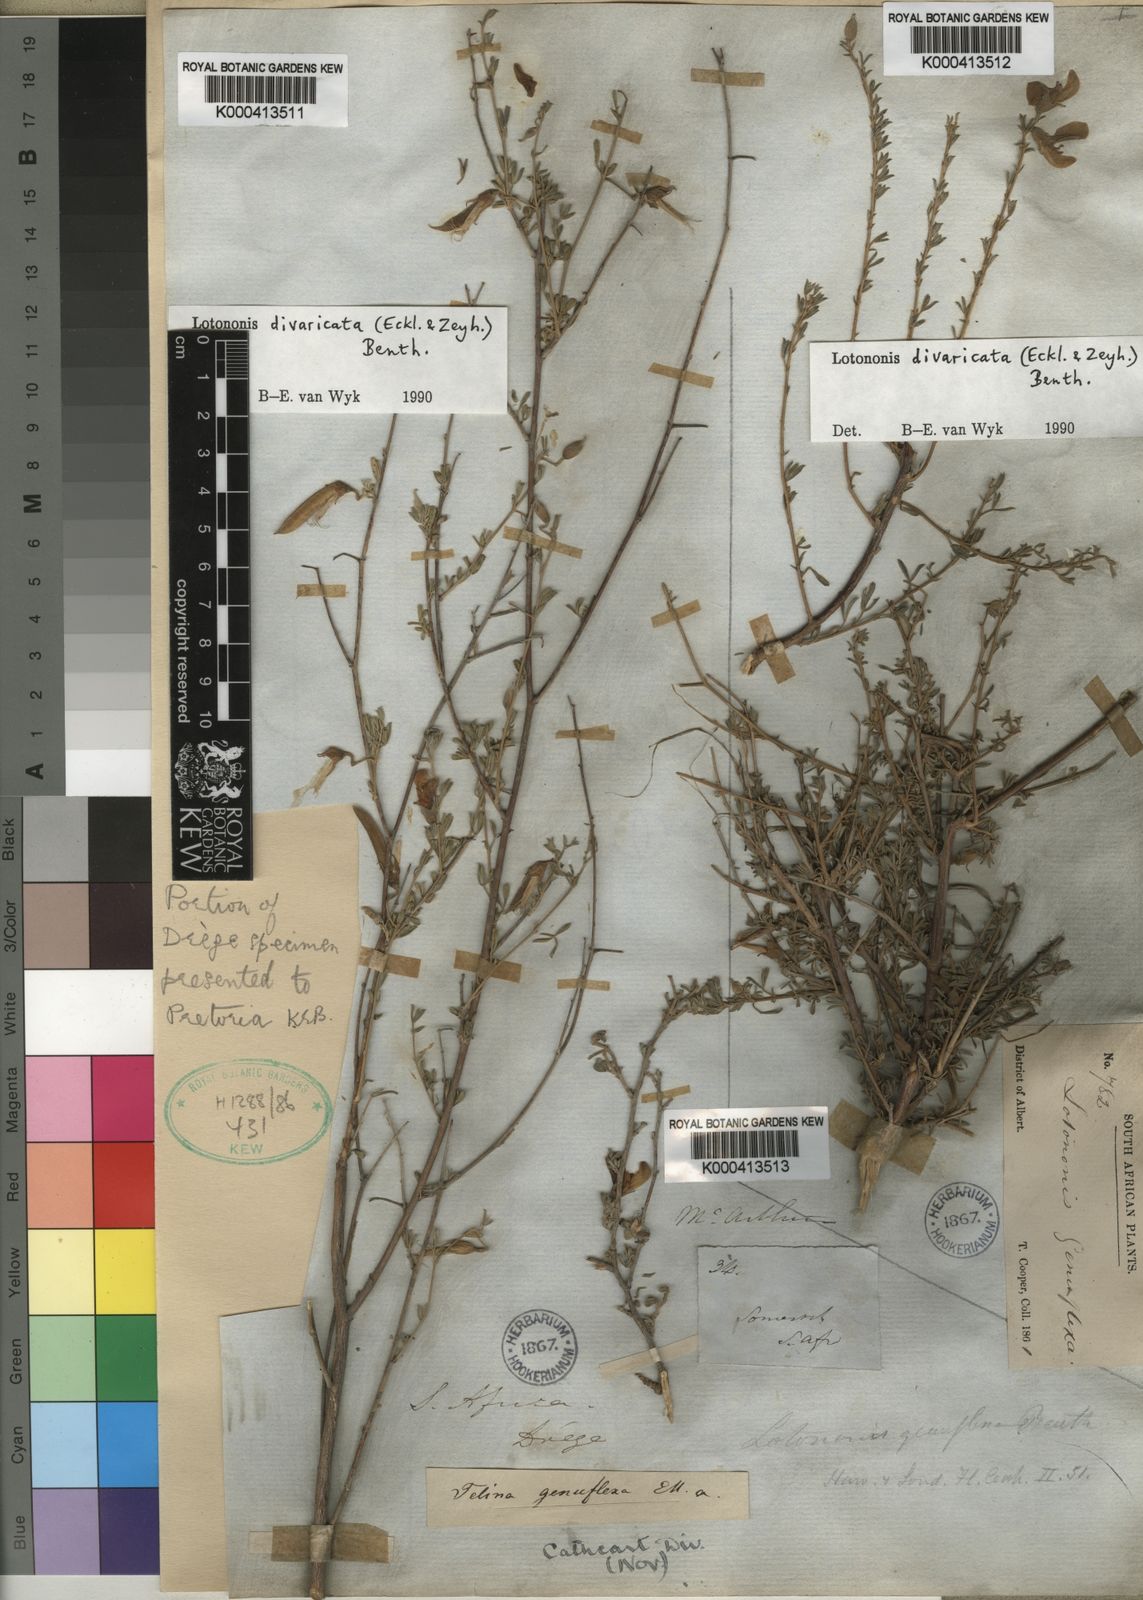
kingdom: Plantae
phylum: Tracheophyta
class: Magnoliopsida
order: Fabales
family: Fabaceae
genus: Lotononis
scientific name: Lotononis divaricata
